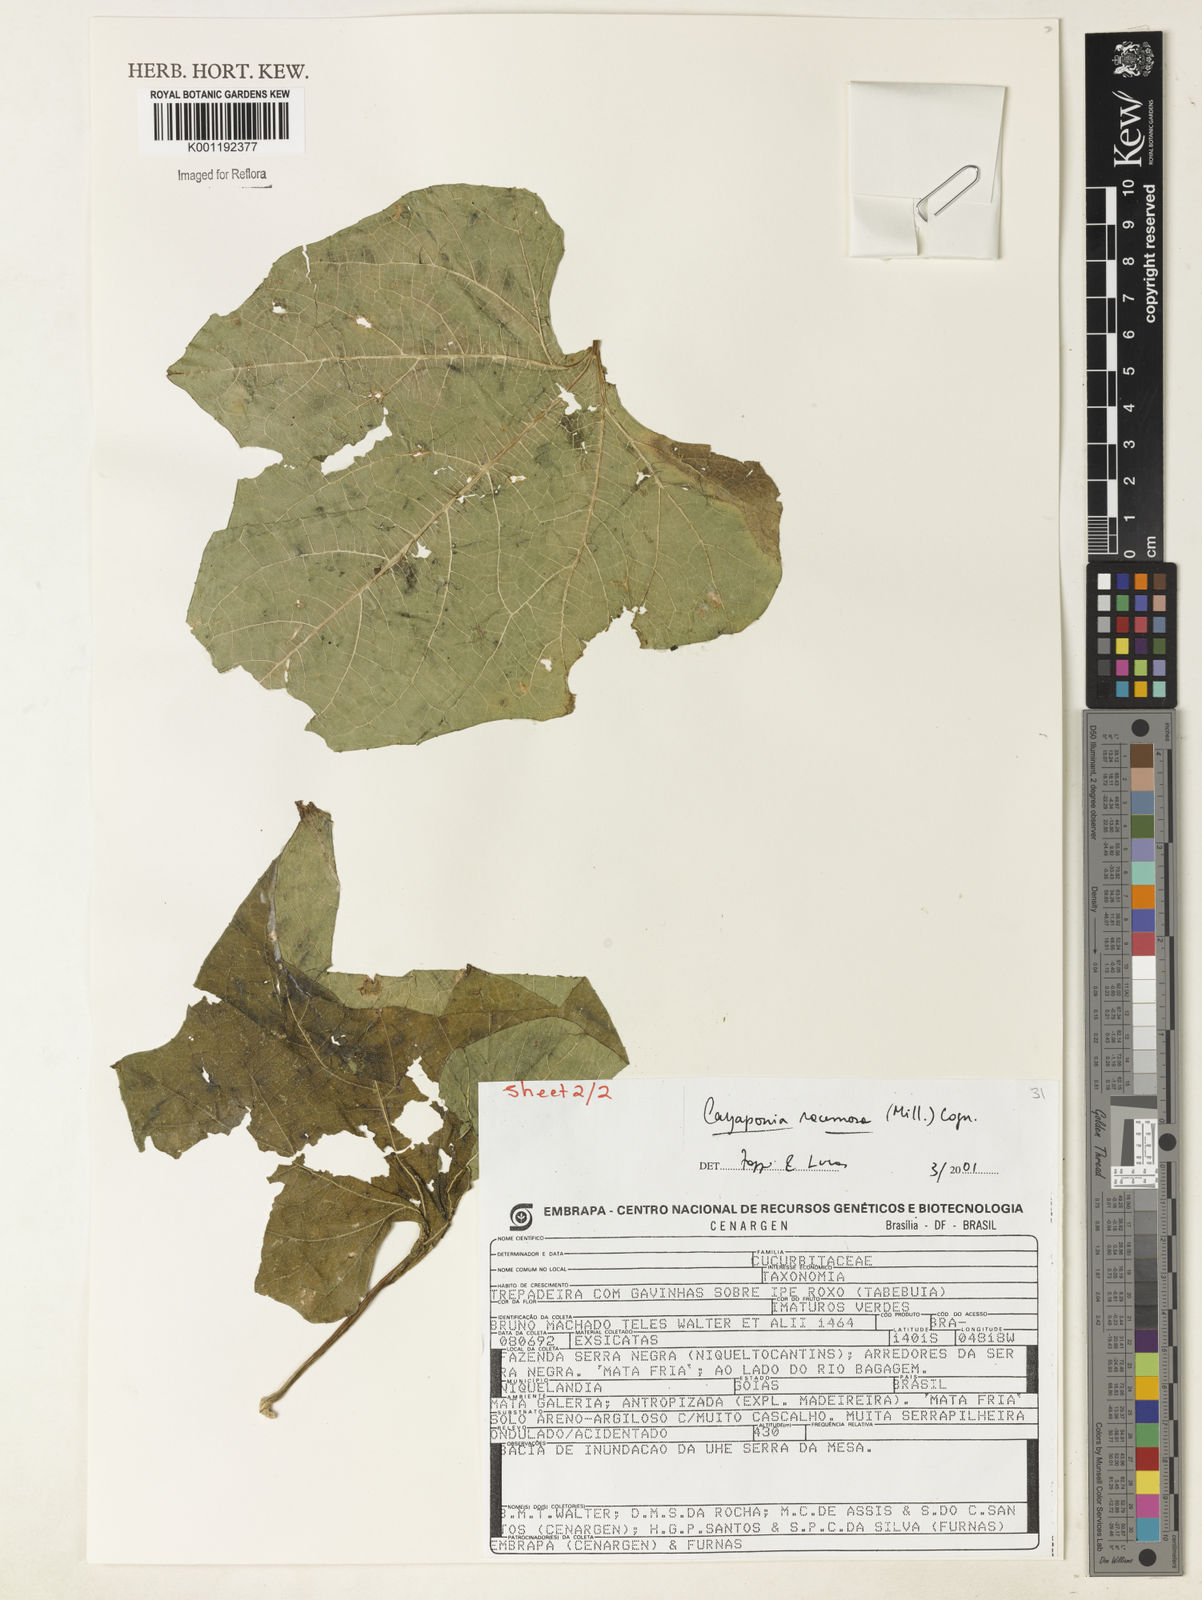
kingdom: Plantae
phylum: Tracheophyta
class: Magnoliopsida
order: Cucurbitales
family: Cucurbitaceae
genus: Cayaponia
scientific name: Cayaponia racemosa
